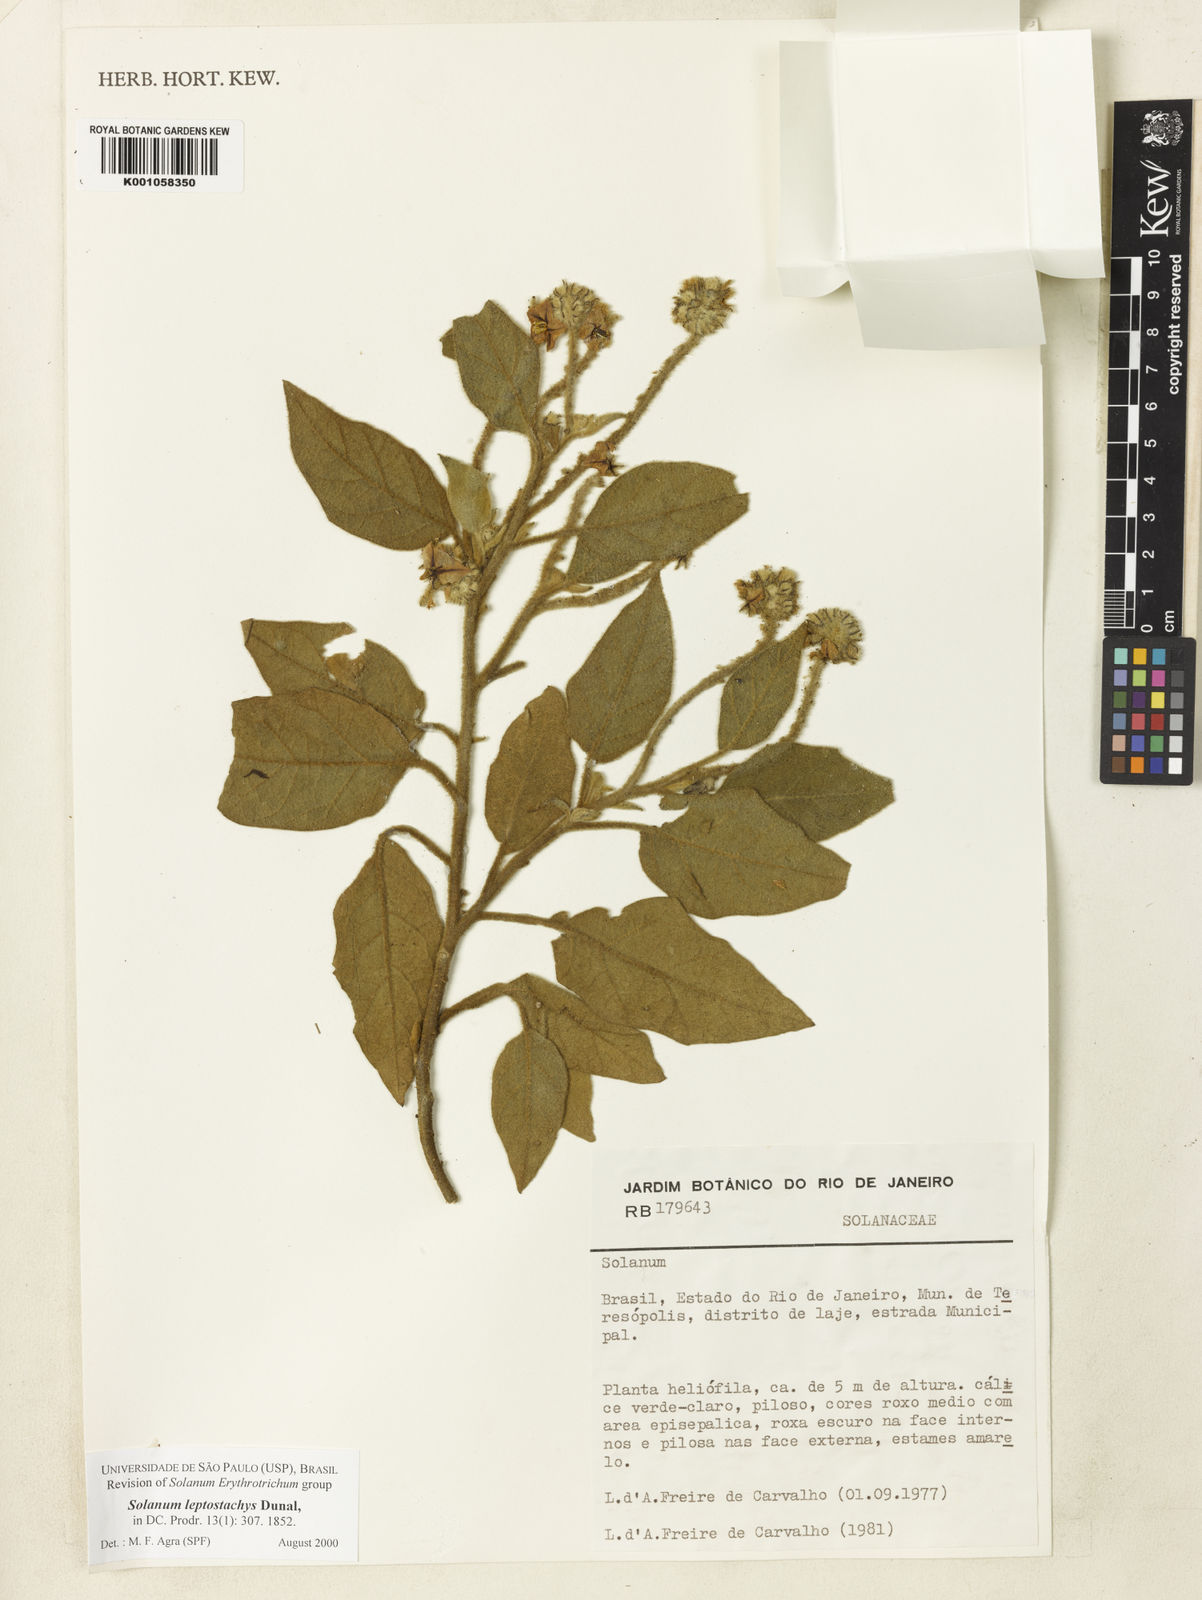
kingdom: Plantae
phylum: Tracheophyta
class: Magnoliopsida
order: Solanales
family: Solanaceae
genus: Solanum
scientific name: Solanum leptostachys
